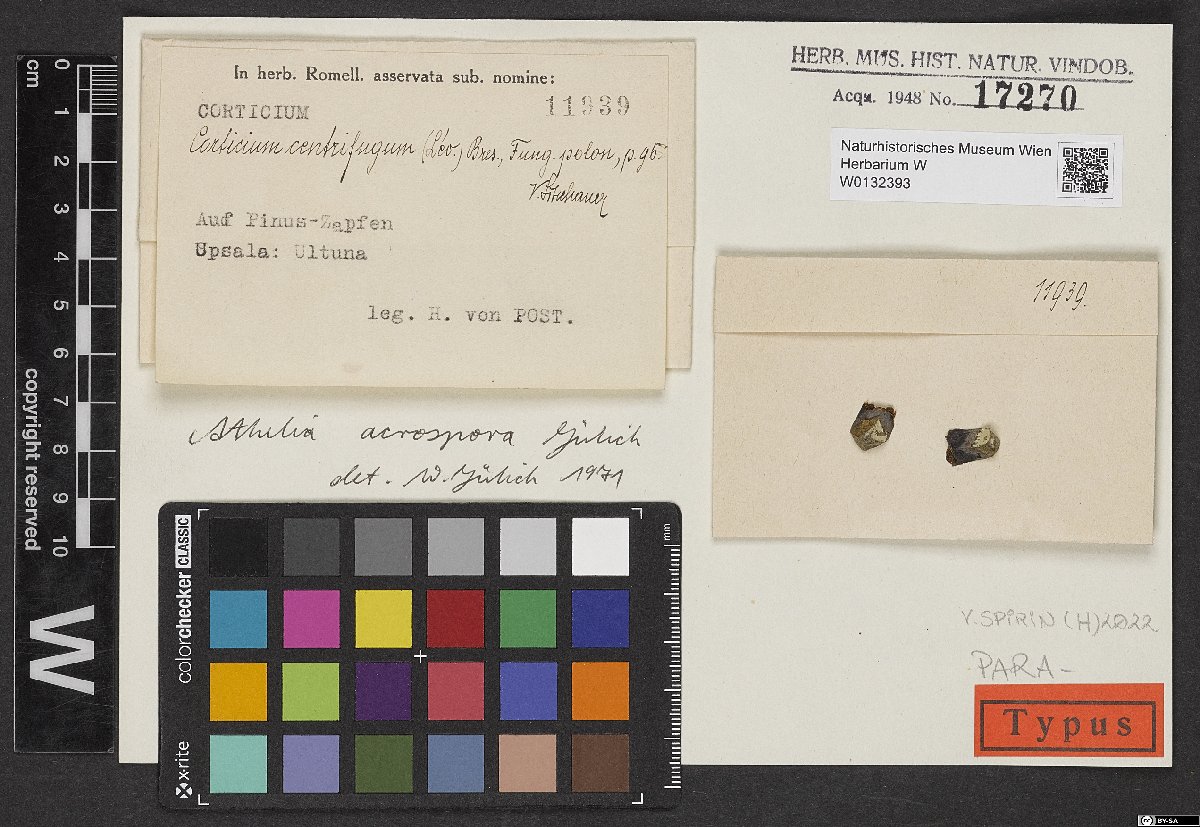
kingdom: Fungi
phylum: Basidiomycota
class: Agaricomycetes
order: Atheliales
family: Atheliaceae
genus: Athelia
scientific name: Athelia epiphylla
